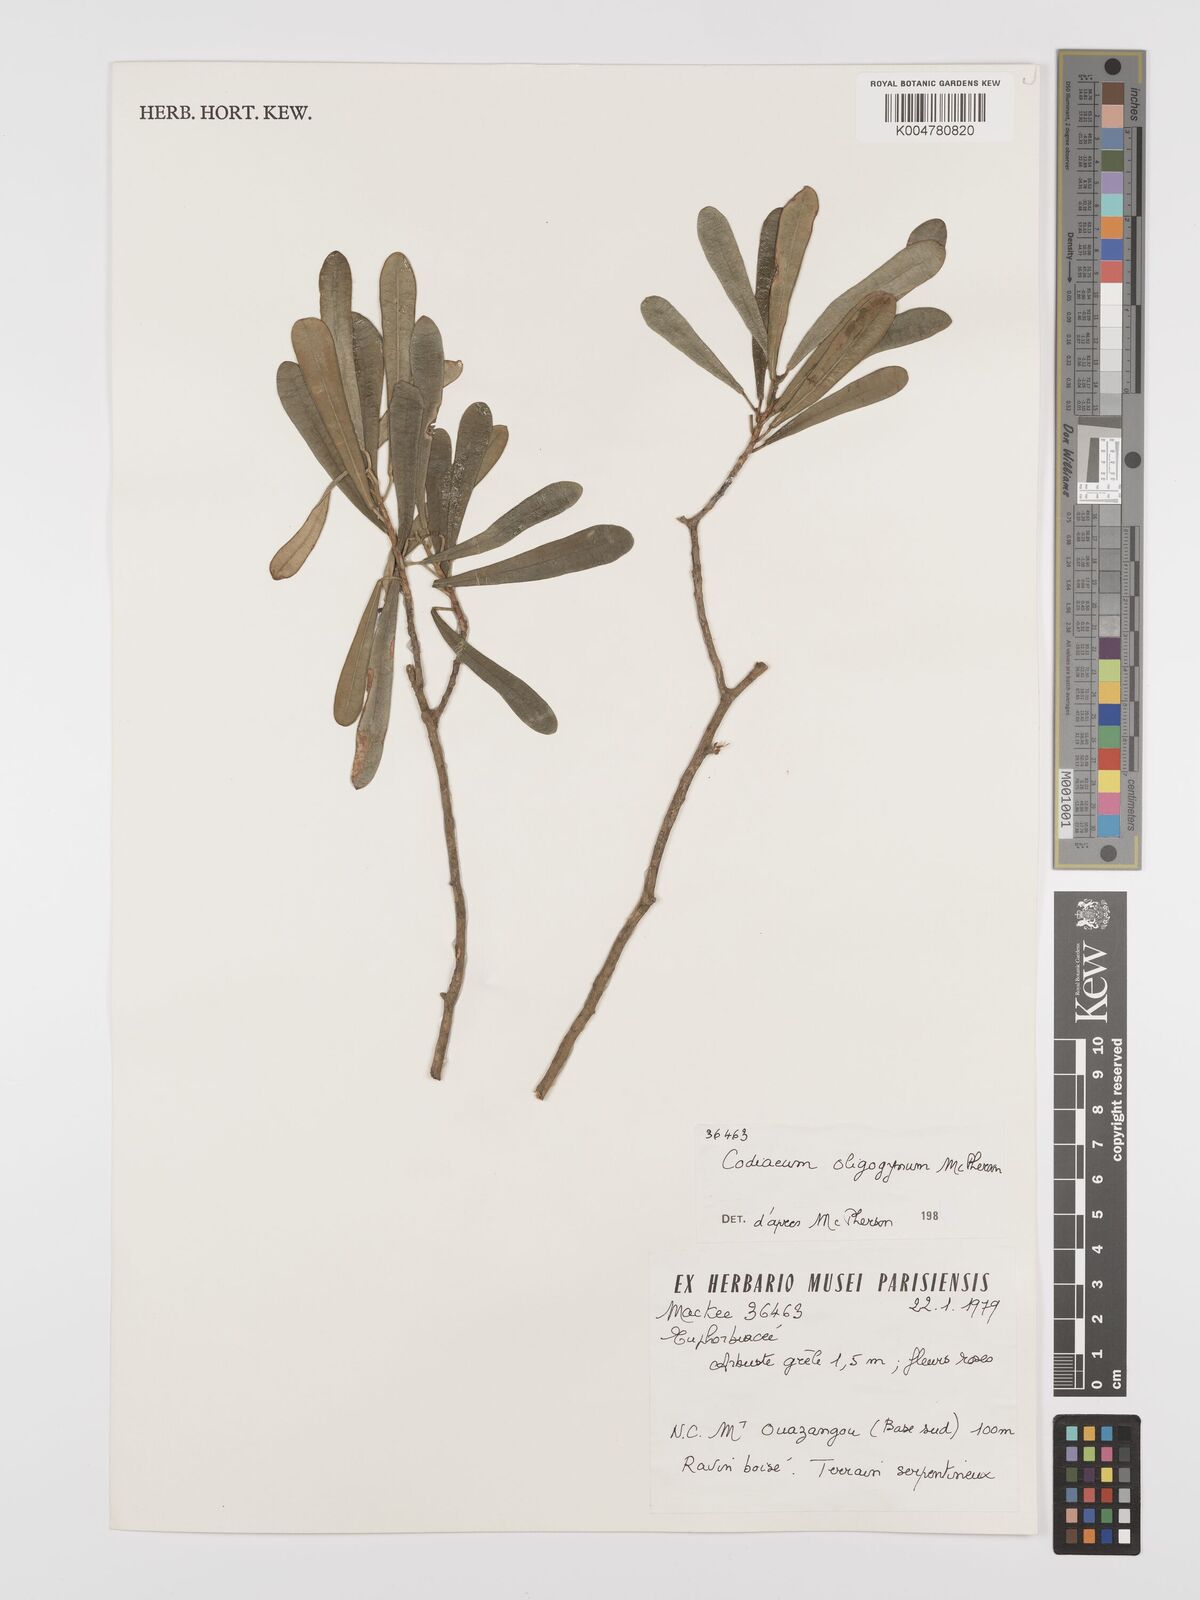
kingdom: Plantae
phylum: Tracheophyta
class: Magnoliopsida
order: Malpighiales
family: Euphorbiaceae
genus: Codiaeum
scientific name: Codiaeum oligogynum
